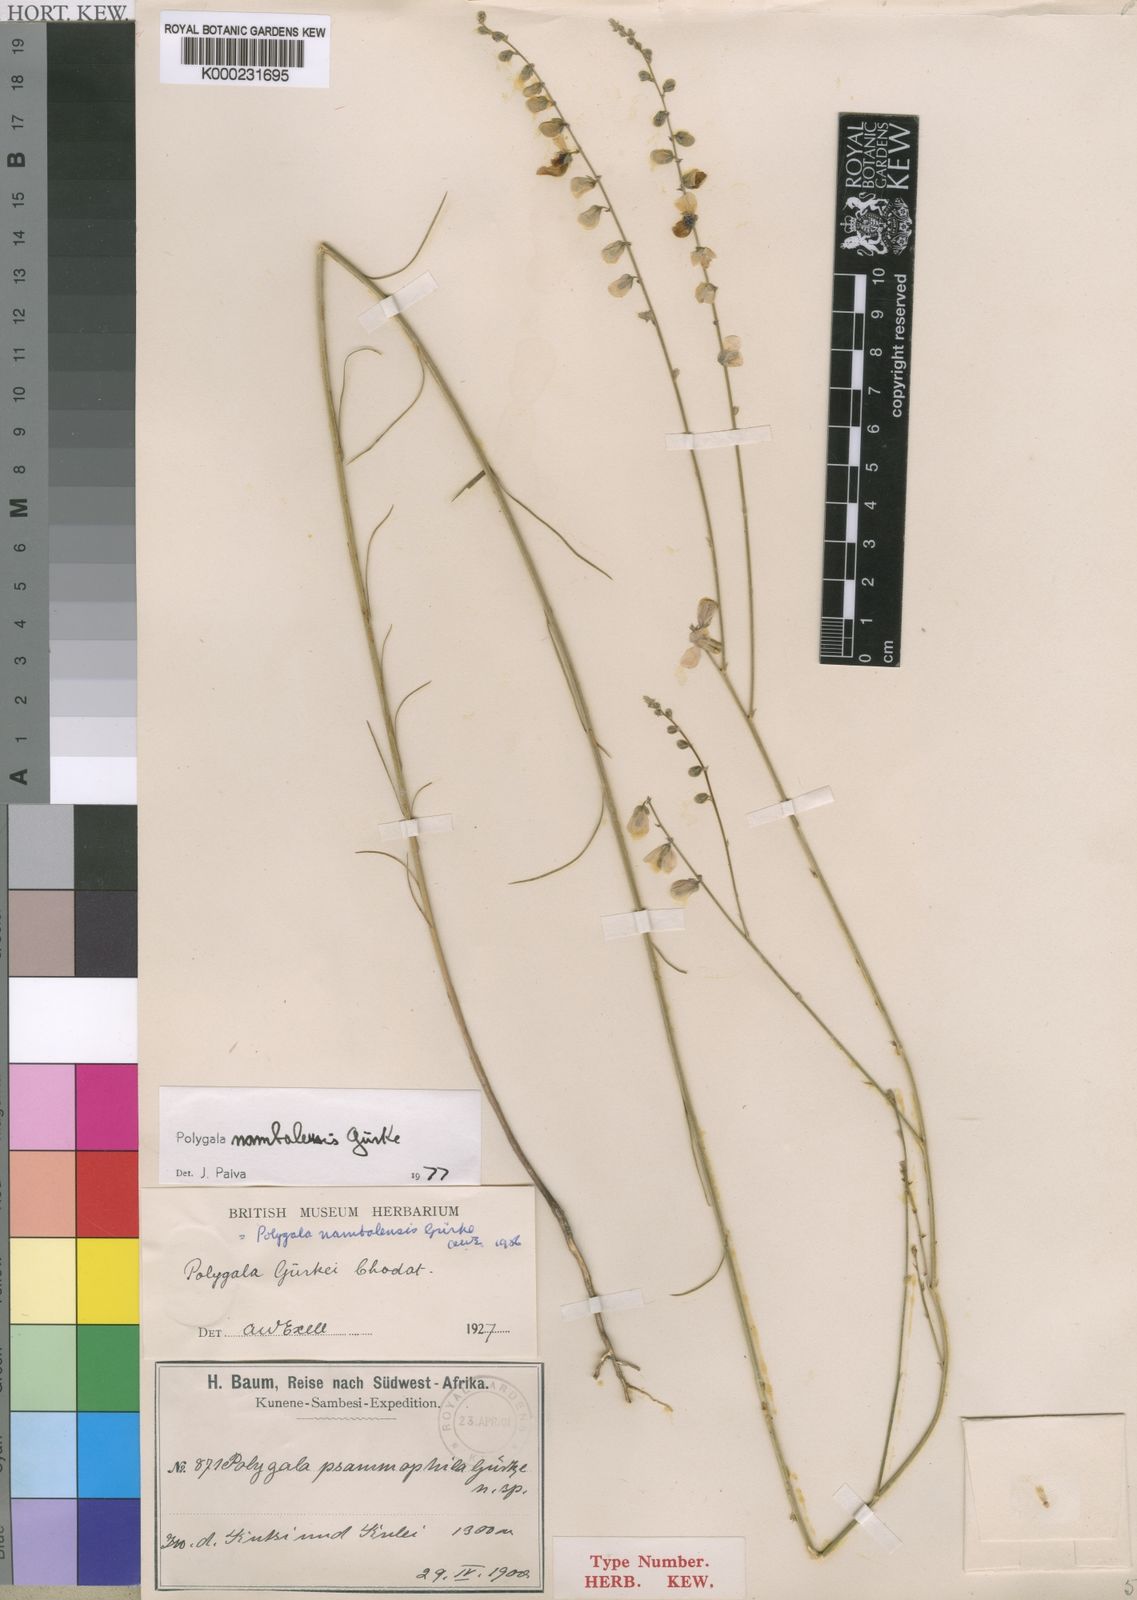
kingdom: Plantae
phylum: Tracheophyta
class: Magnoliopsida
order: Fabales
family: Polygalaceae
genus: Polygala
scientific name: Polygala
